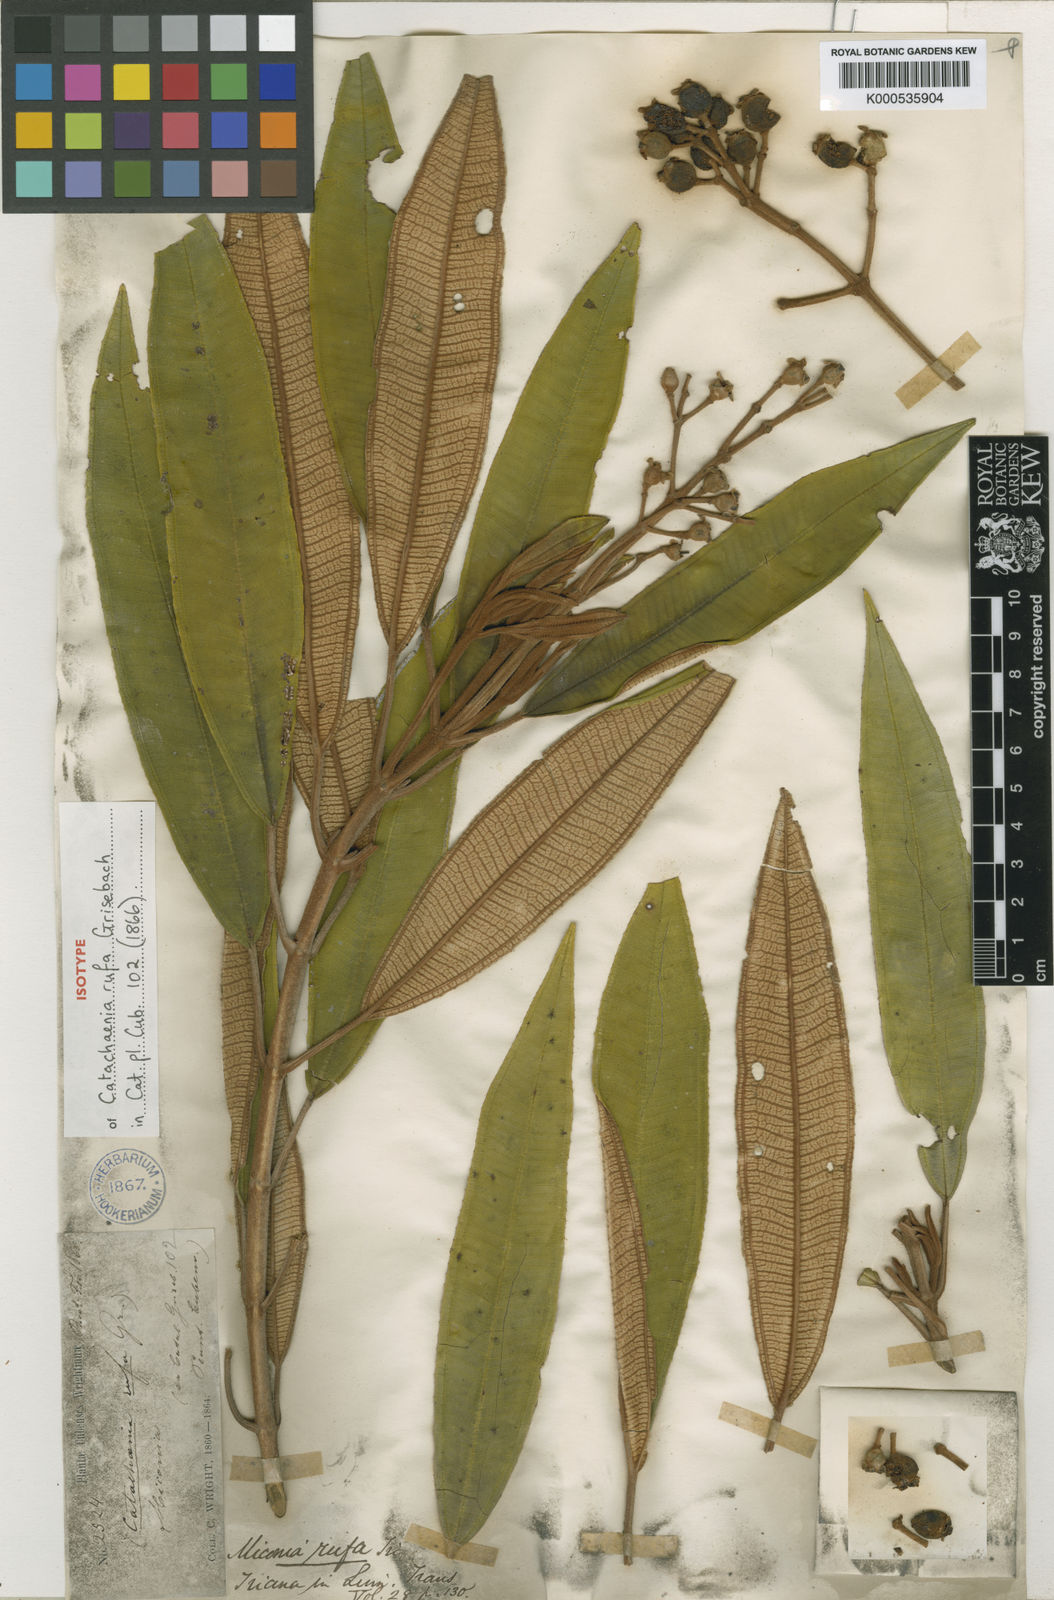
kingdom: Plantae
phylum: Tracheophyta
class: Magnoliopsida
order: Myrtales
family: Melastomataceae
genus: Miconia
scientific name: Miconia rufa
